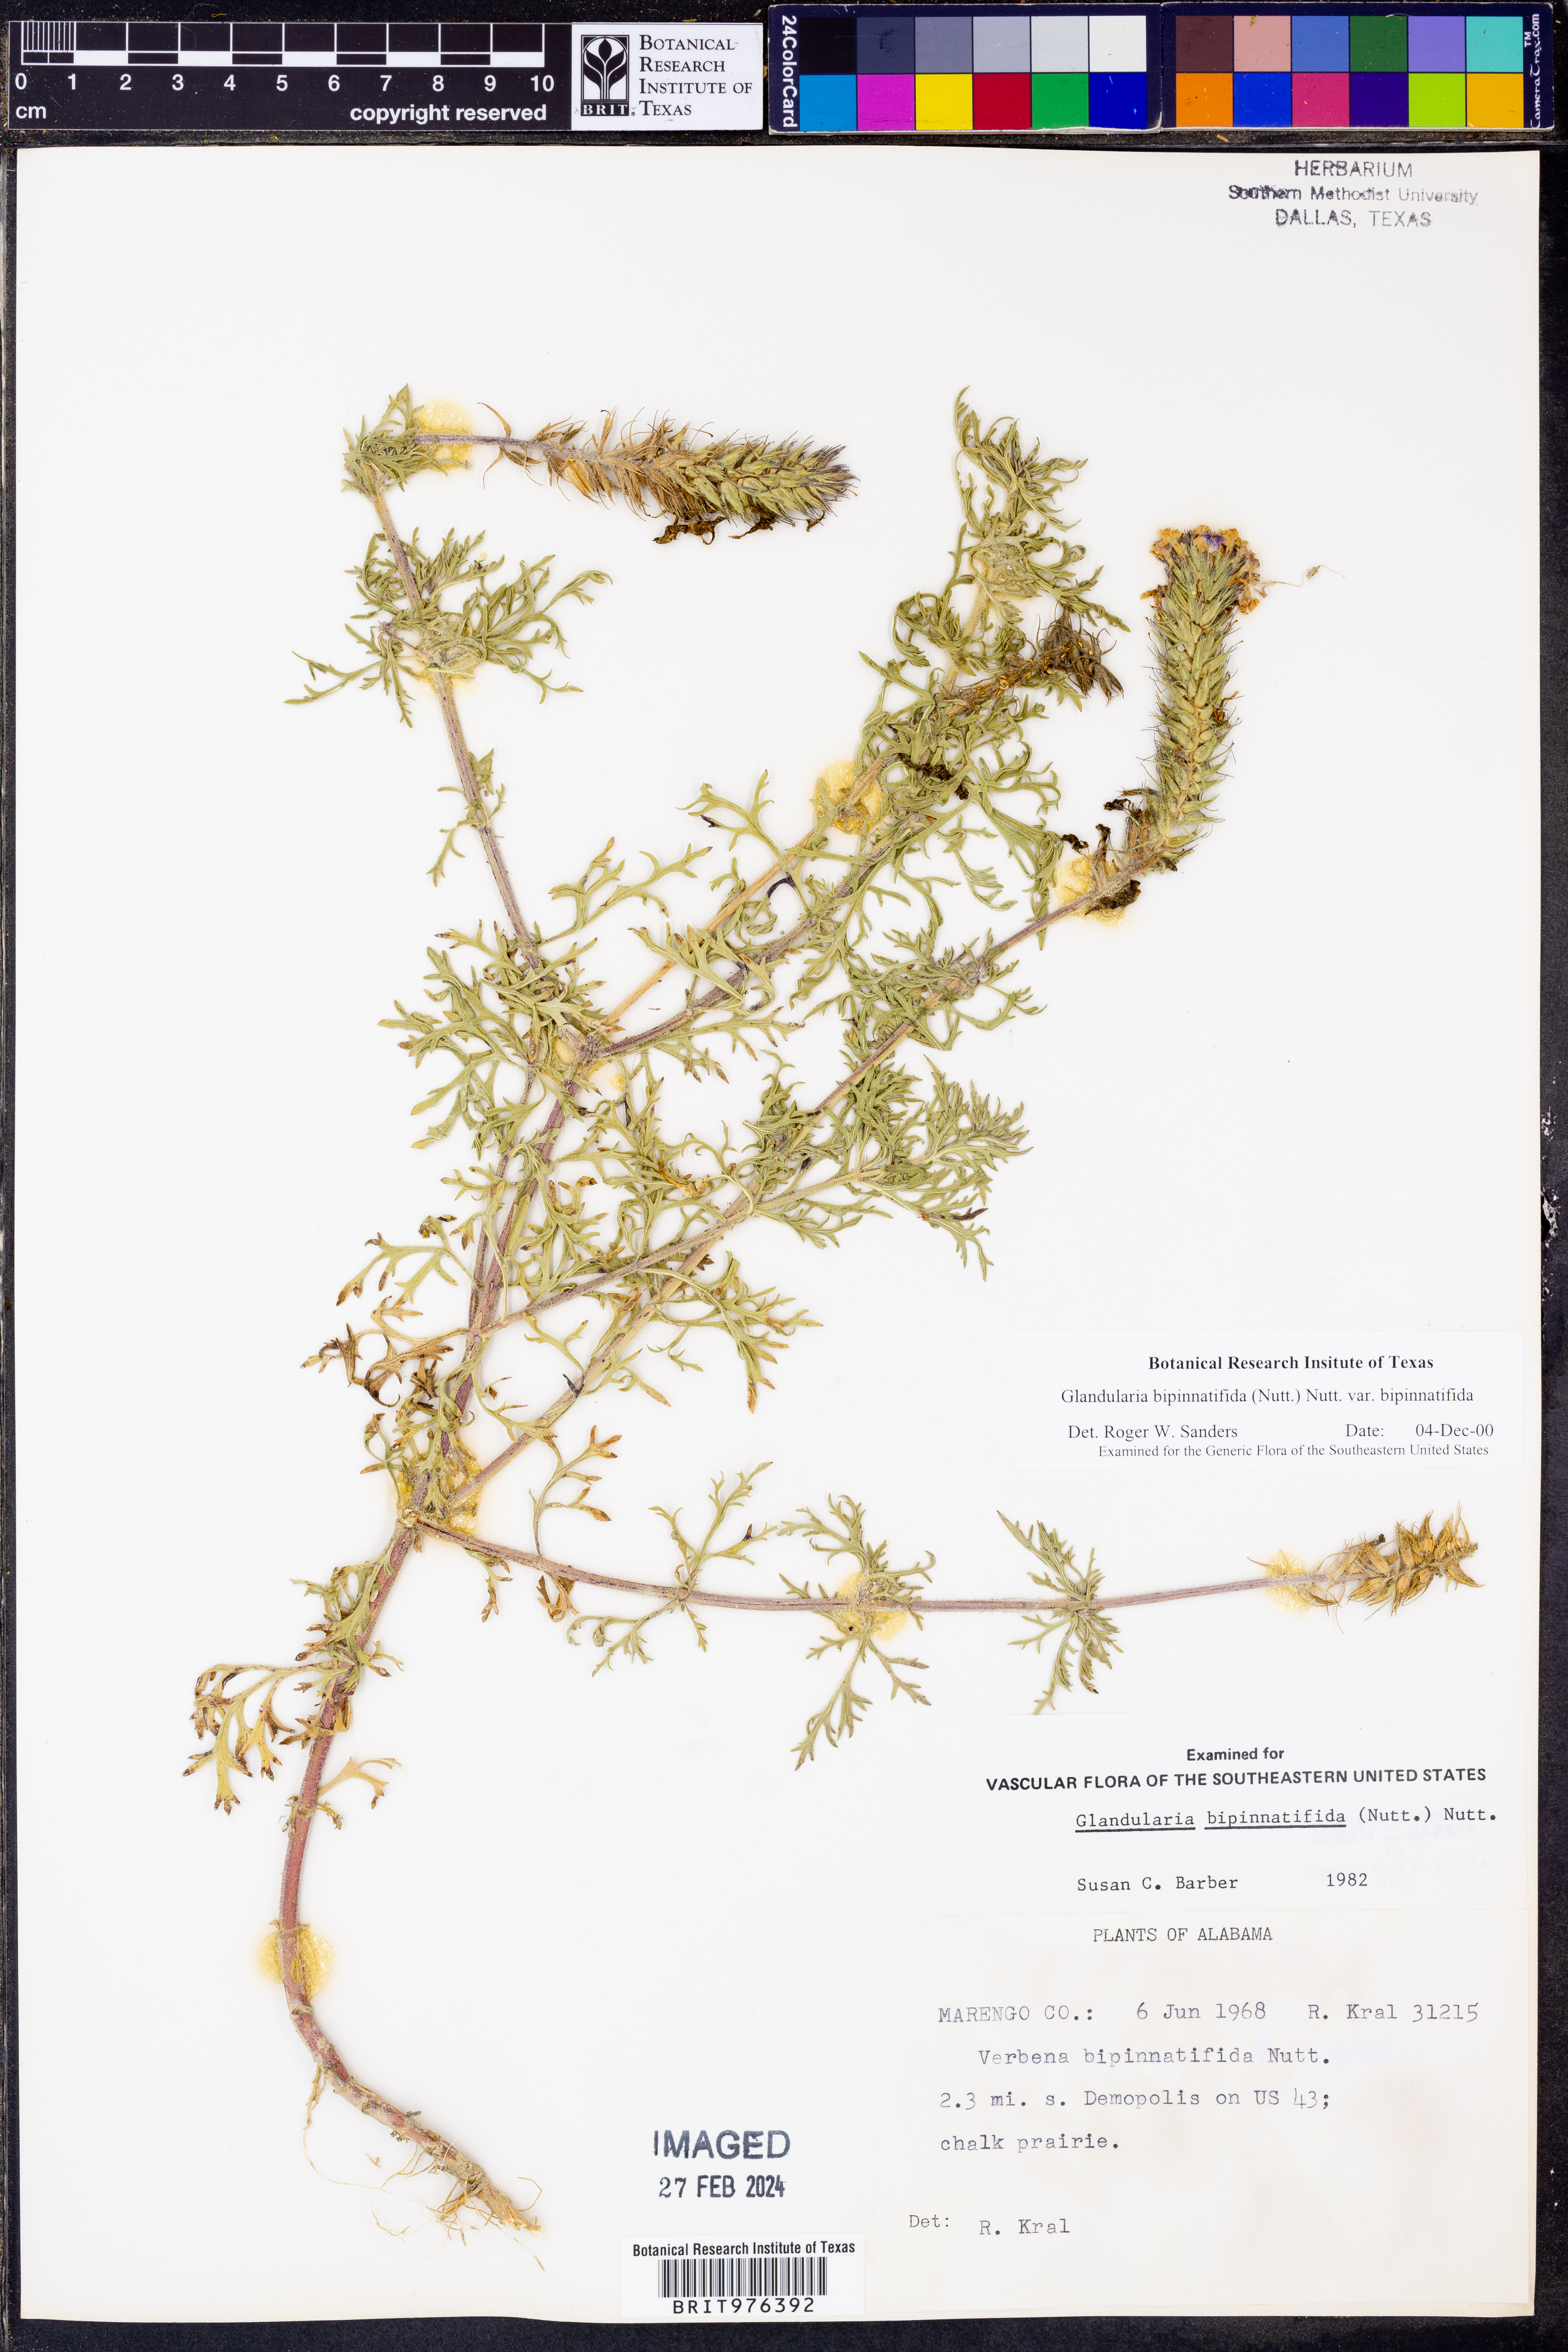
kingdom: Plantae
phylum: Tracheophyta
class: Magnoliopsida
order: Lamiales
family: Verbenaceae
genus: Verbena
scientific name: Verbena bipinnatifida
